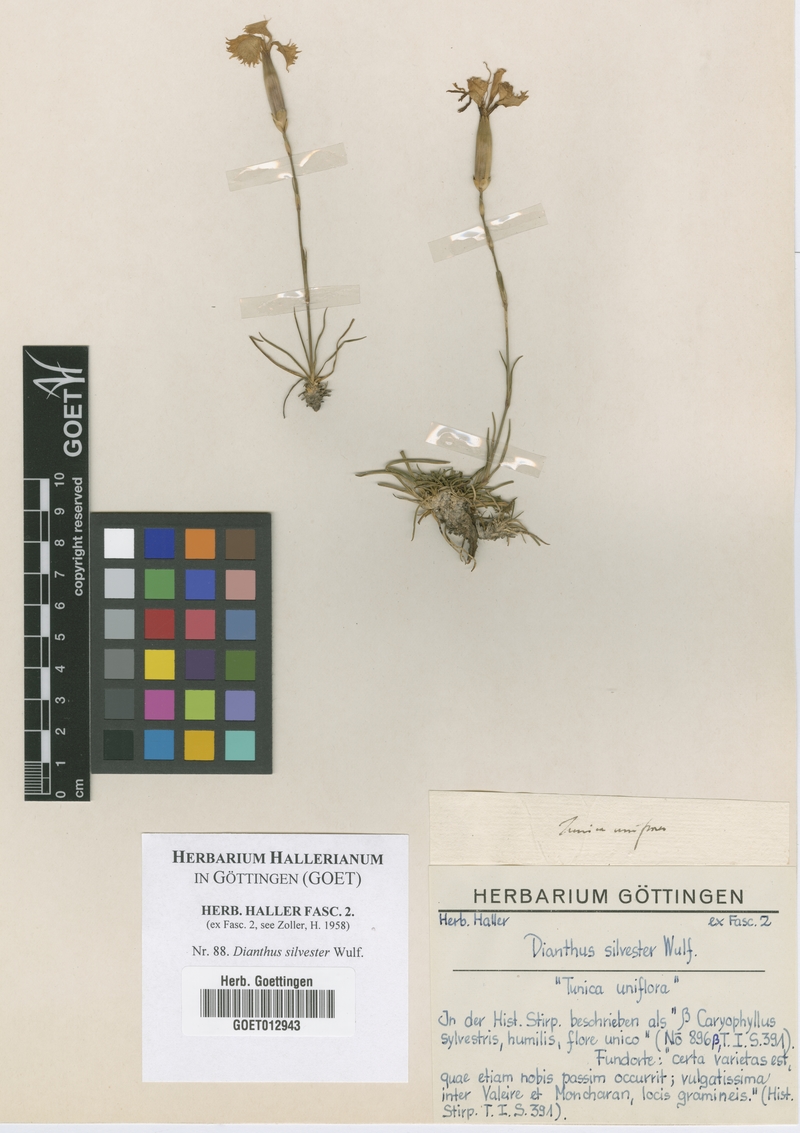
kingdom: Plantae
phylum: Tracheophyta
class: Magnoliopsida
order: Caryophyllales
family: Caryophyllaceae
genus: Dianthus
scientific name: Dianthus silvester
